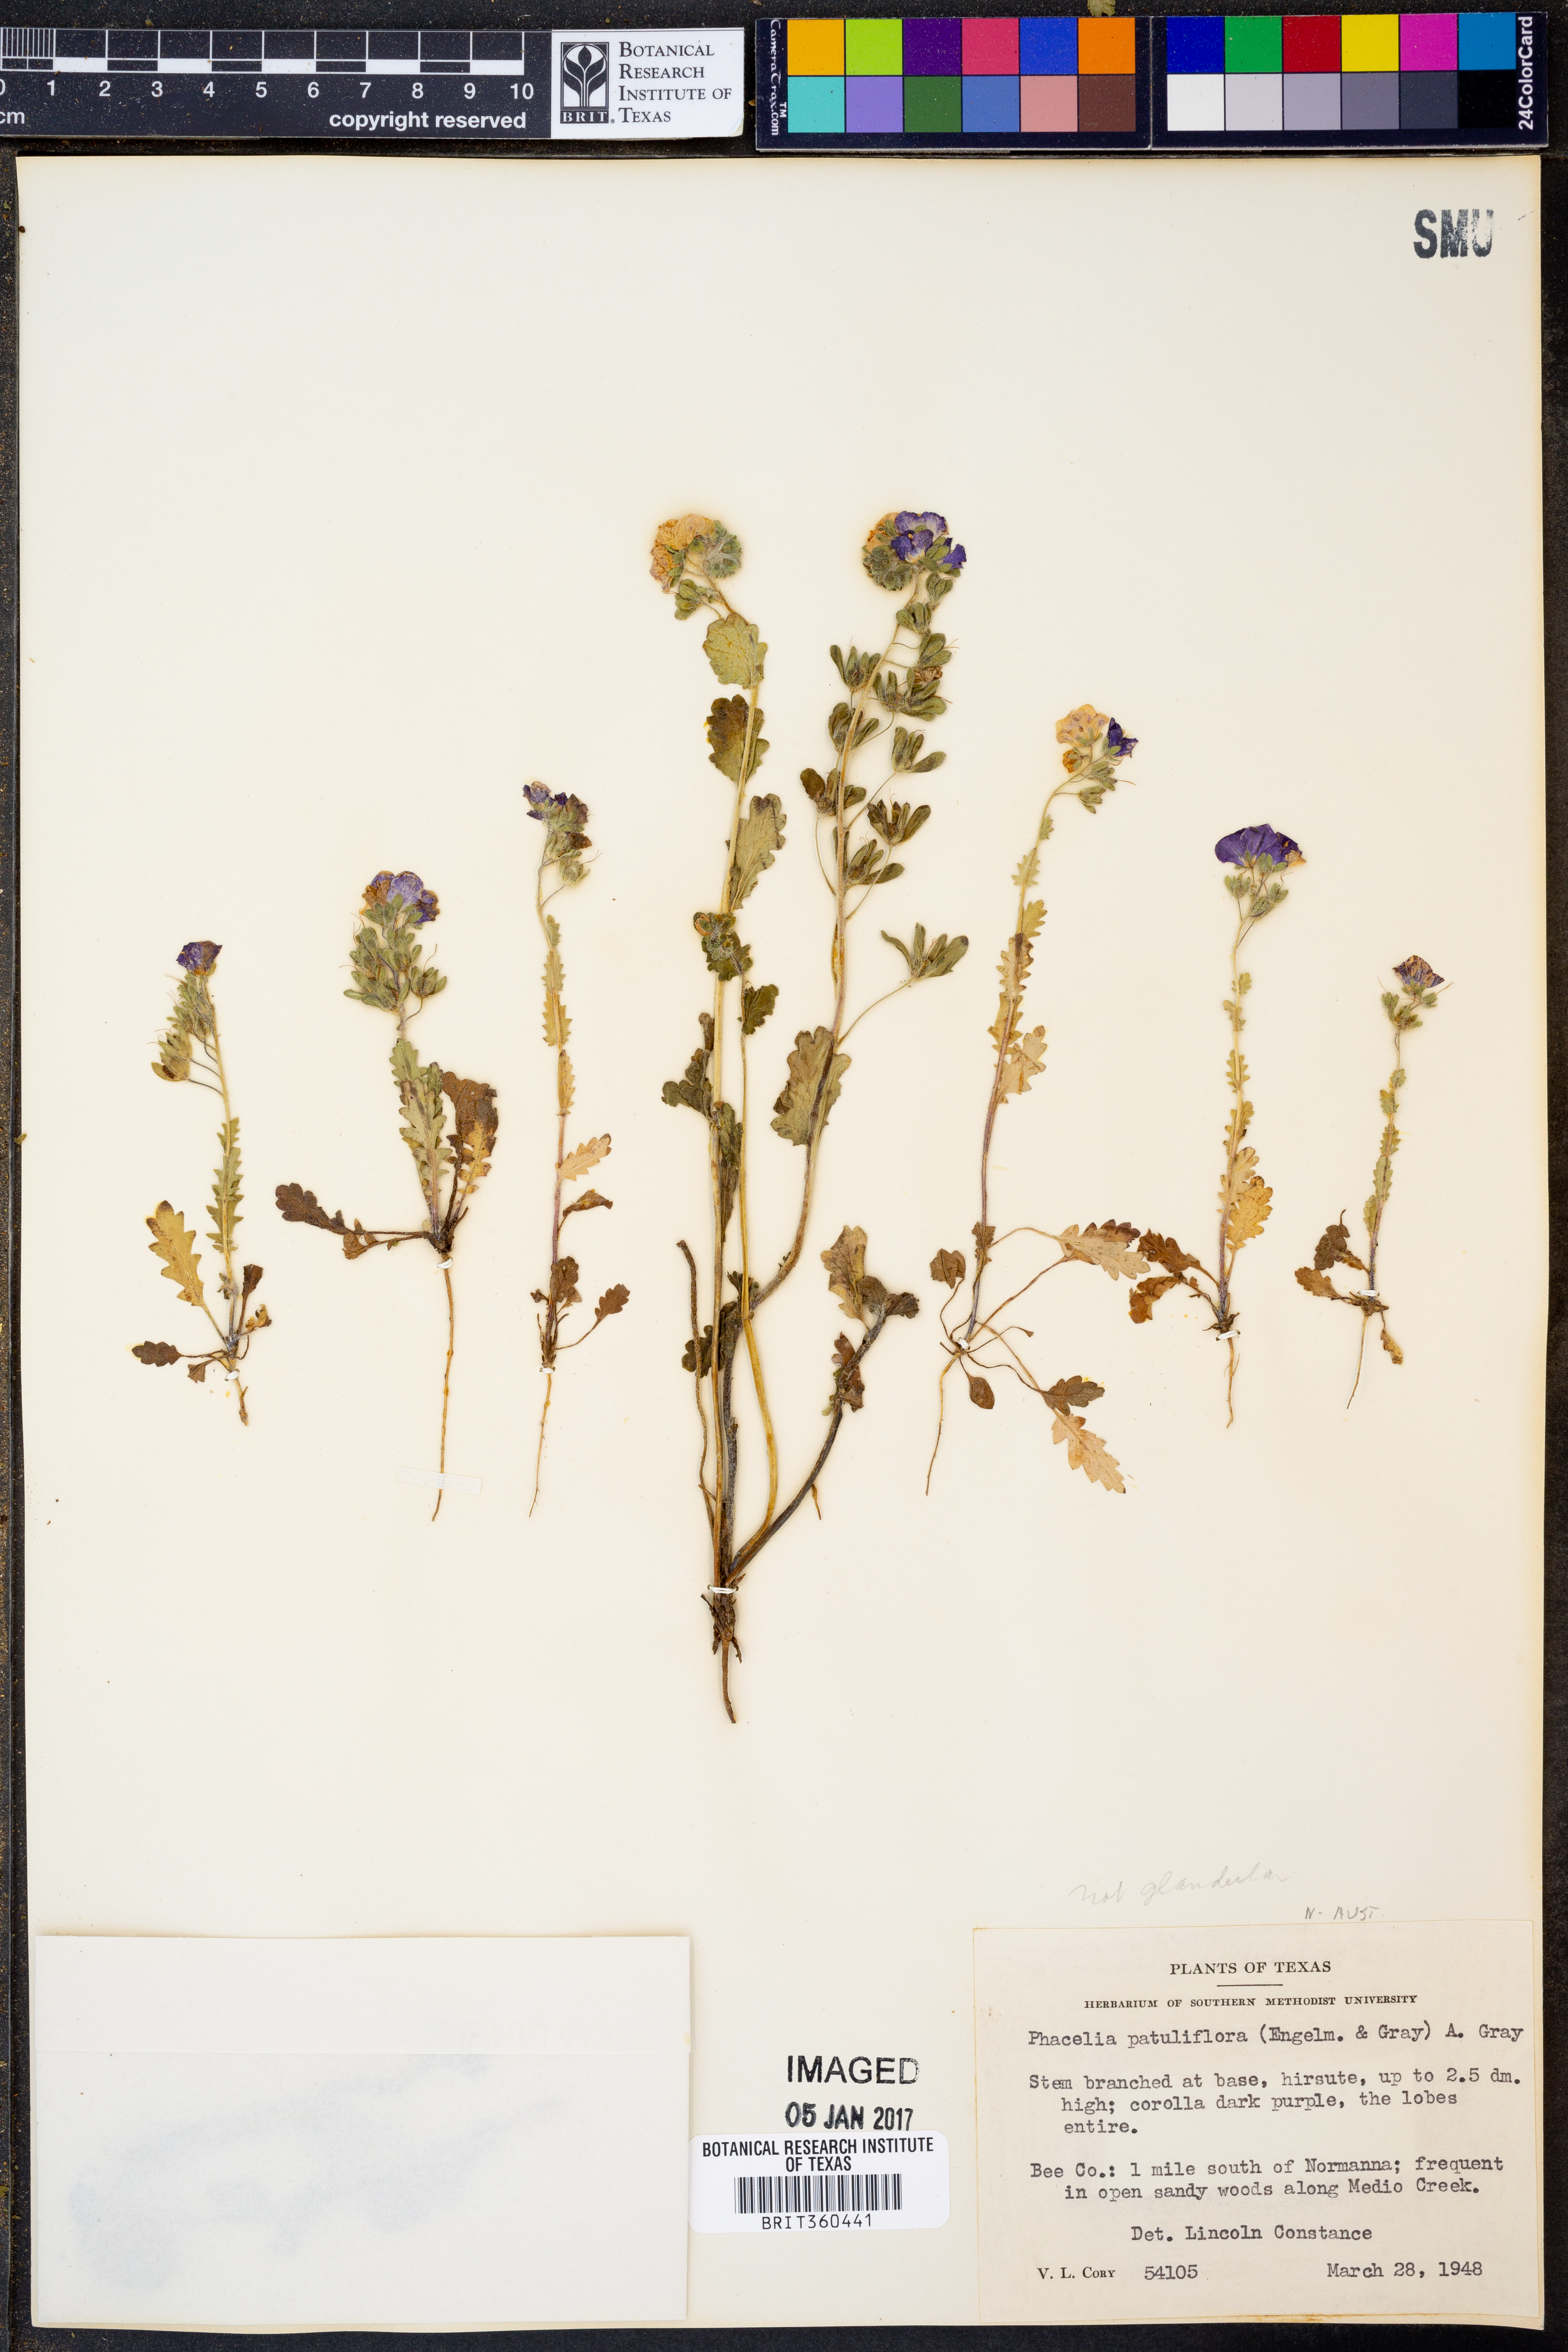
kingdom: Plantae
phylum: Tracheophyta
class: Magnoliopsida
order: Boraginales
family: Hydrophyllaceae
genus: Phacelia
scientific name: Phacelia patuliflora
